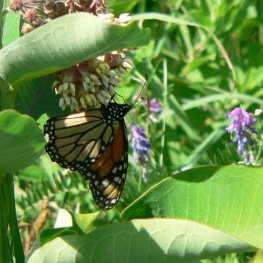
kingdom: Animalia
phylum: Arthropoda
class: Insecta
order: Lepidoptera
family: Nymphalidae
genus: Danaus
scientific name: Danaus plexippus
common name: Monarch
